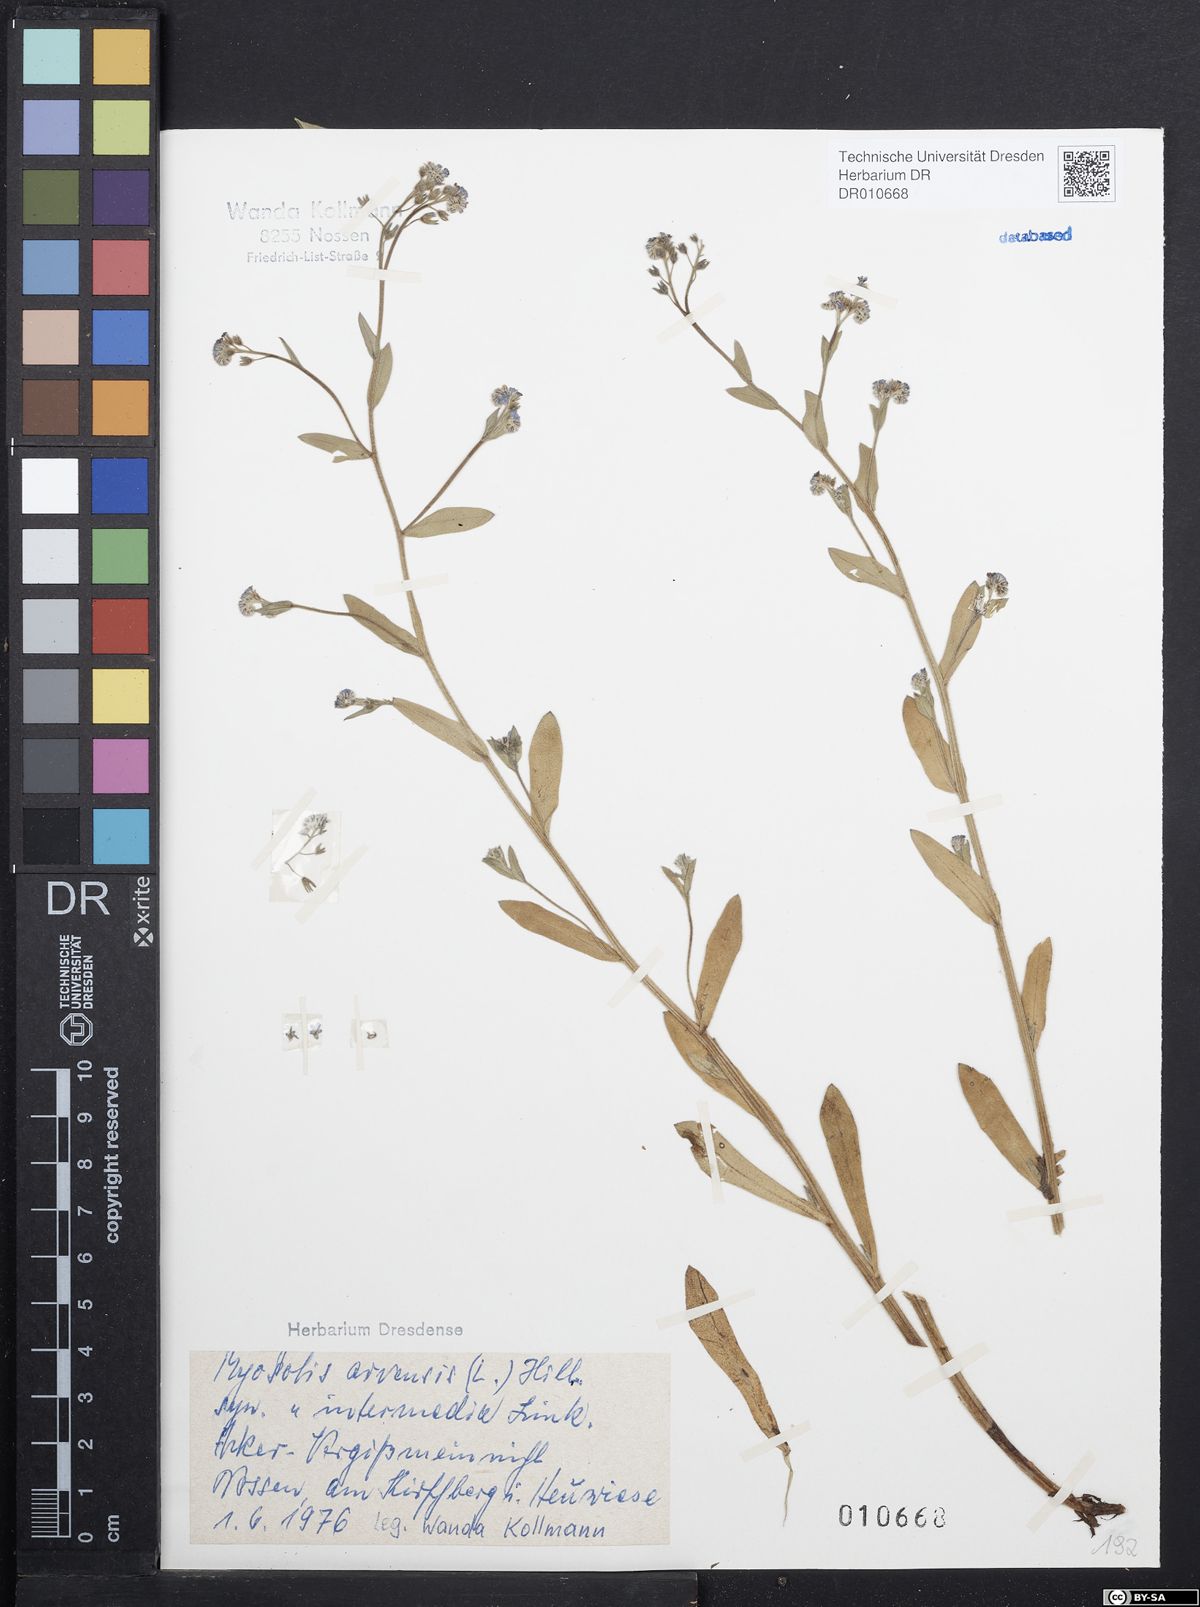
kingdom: Plantae
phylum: Tracheophyta
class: Magnoliopsida
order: Boraginales
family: Boraginaceae
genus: Myosotis
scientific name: Myosotis arvensis
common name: Field forget-me-not
